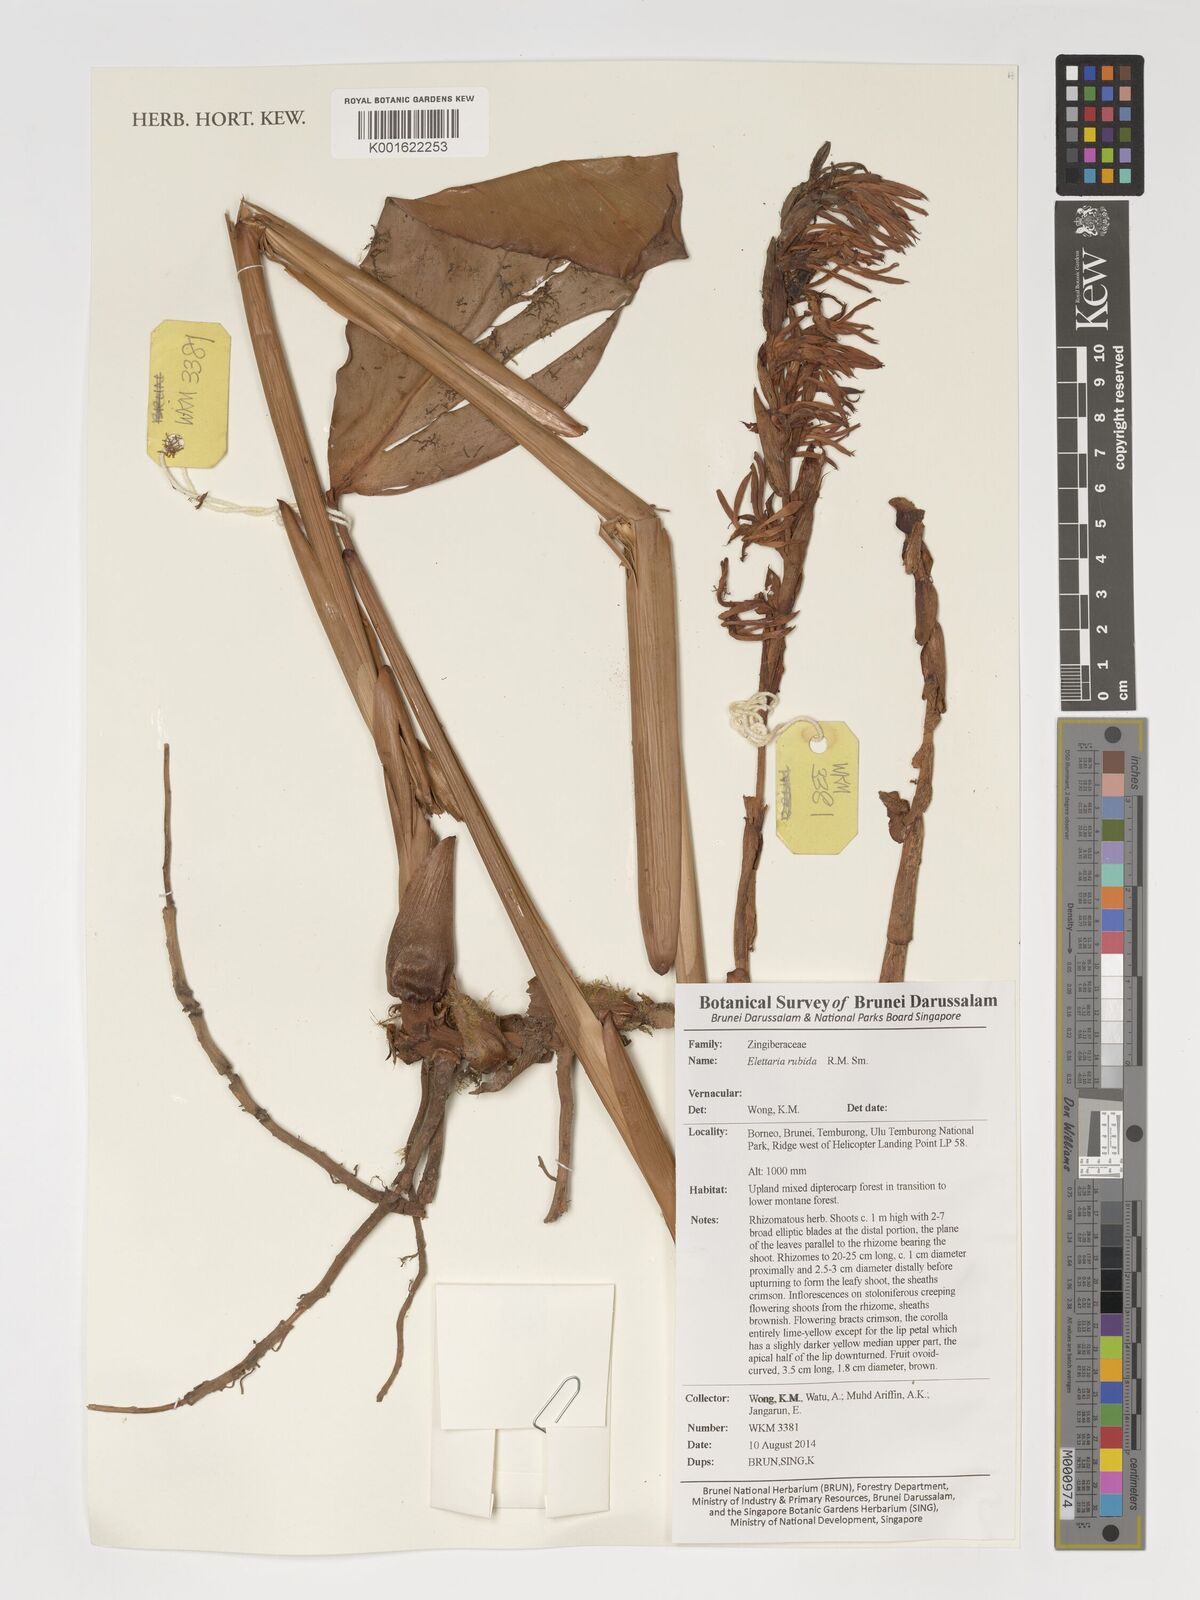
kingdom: Plantae
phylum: Tracheophyta
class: Liliopsida
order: Zingiberales
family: Zingiberaceae
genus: Sulettaria
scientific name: Sulettaria rubida
